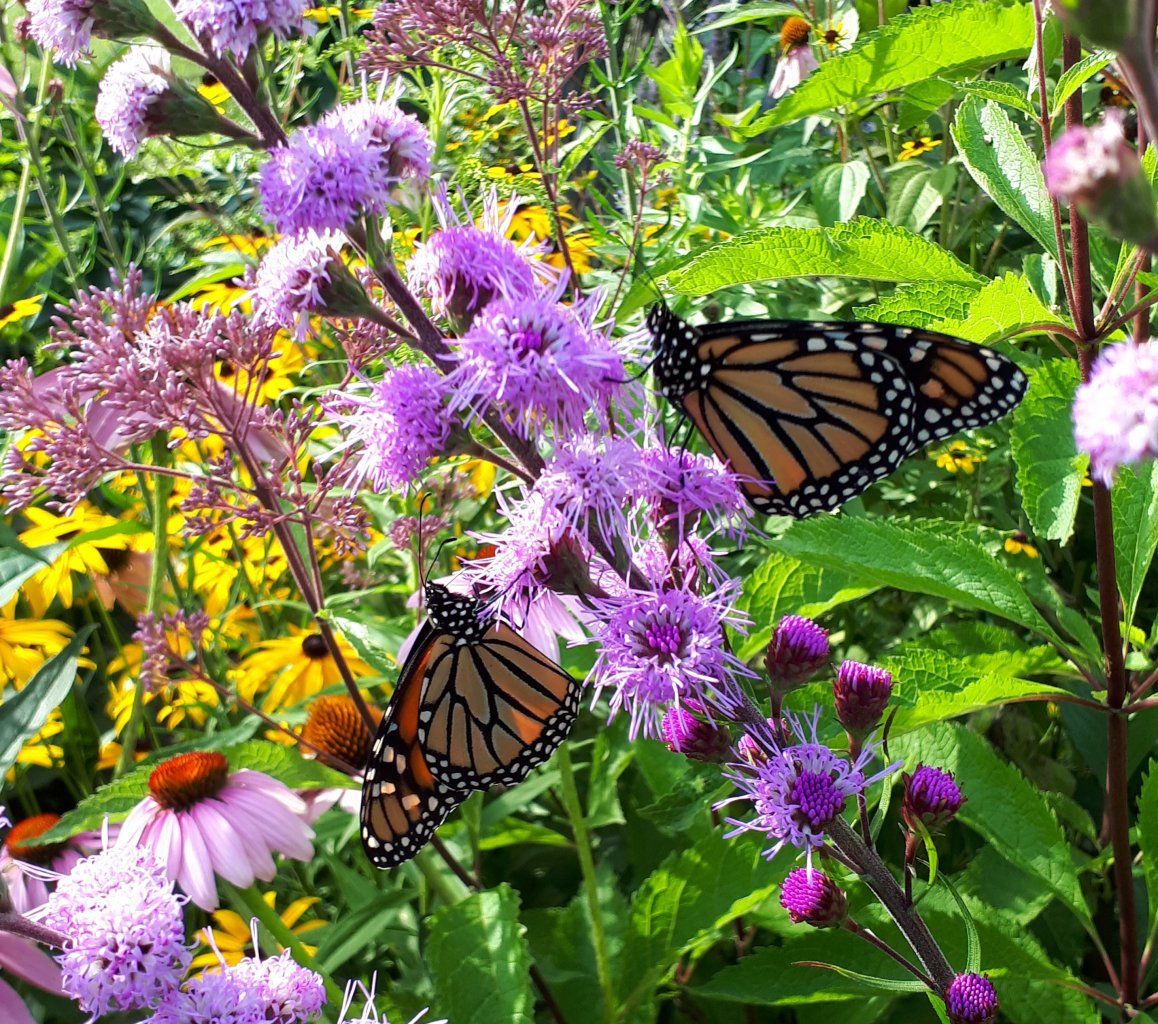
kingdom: Animalia
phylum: Arthropoda
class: Insecta
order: Lepidoptera
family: Nymphalidae
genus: Danaus
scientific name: Danaus plexippus
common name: Monarch
